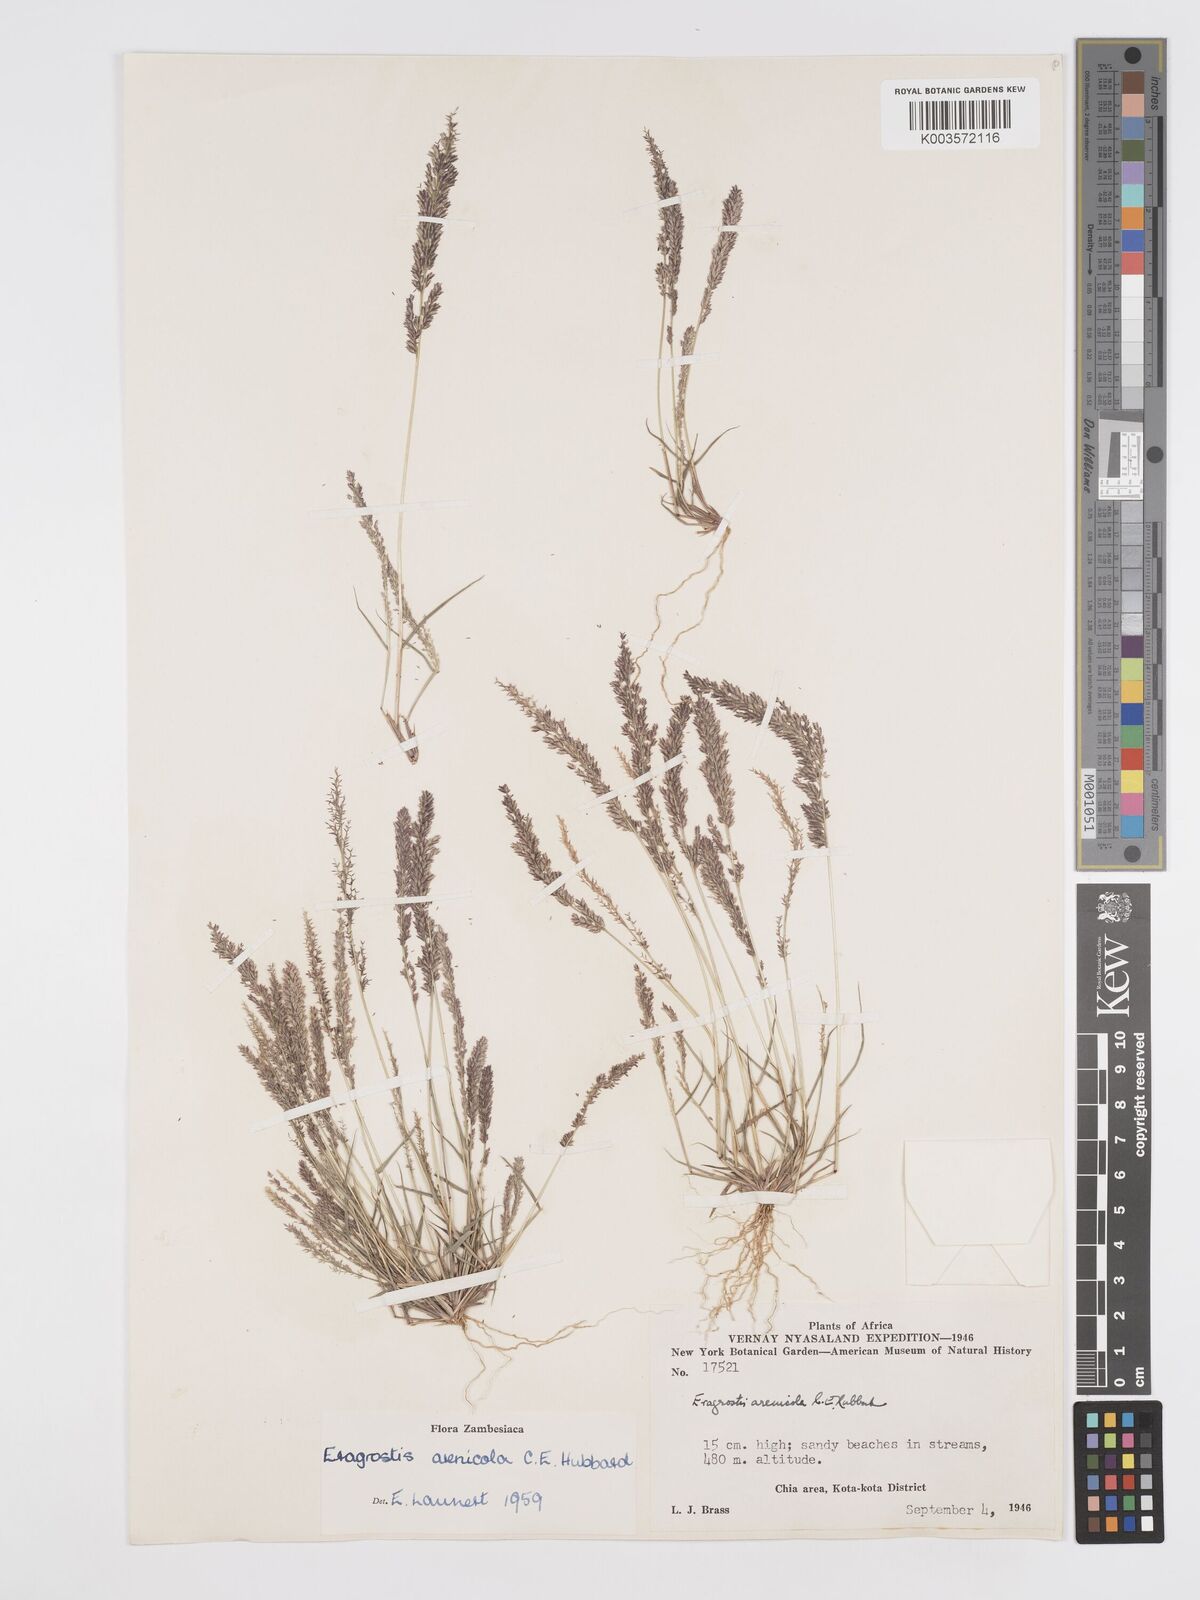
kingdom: Plantae
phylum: Tracheophyta
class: Liliopsida
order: Poales
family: Poaceae
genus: Eragrostis
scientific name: Eragrostis arenicola
